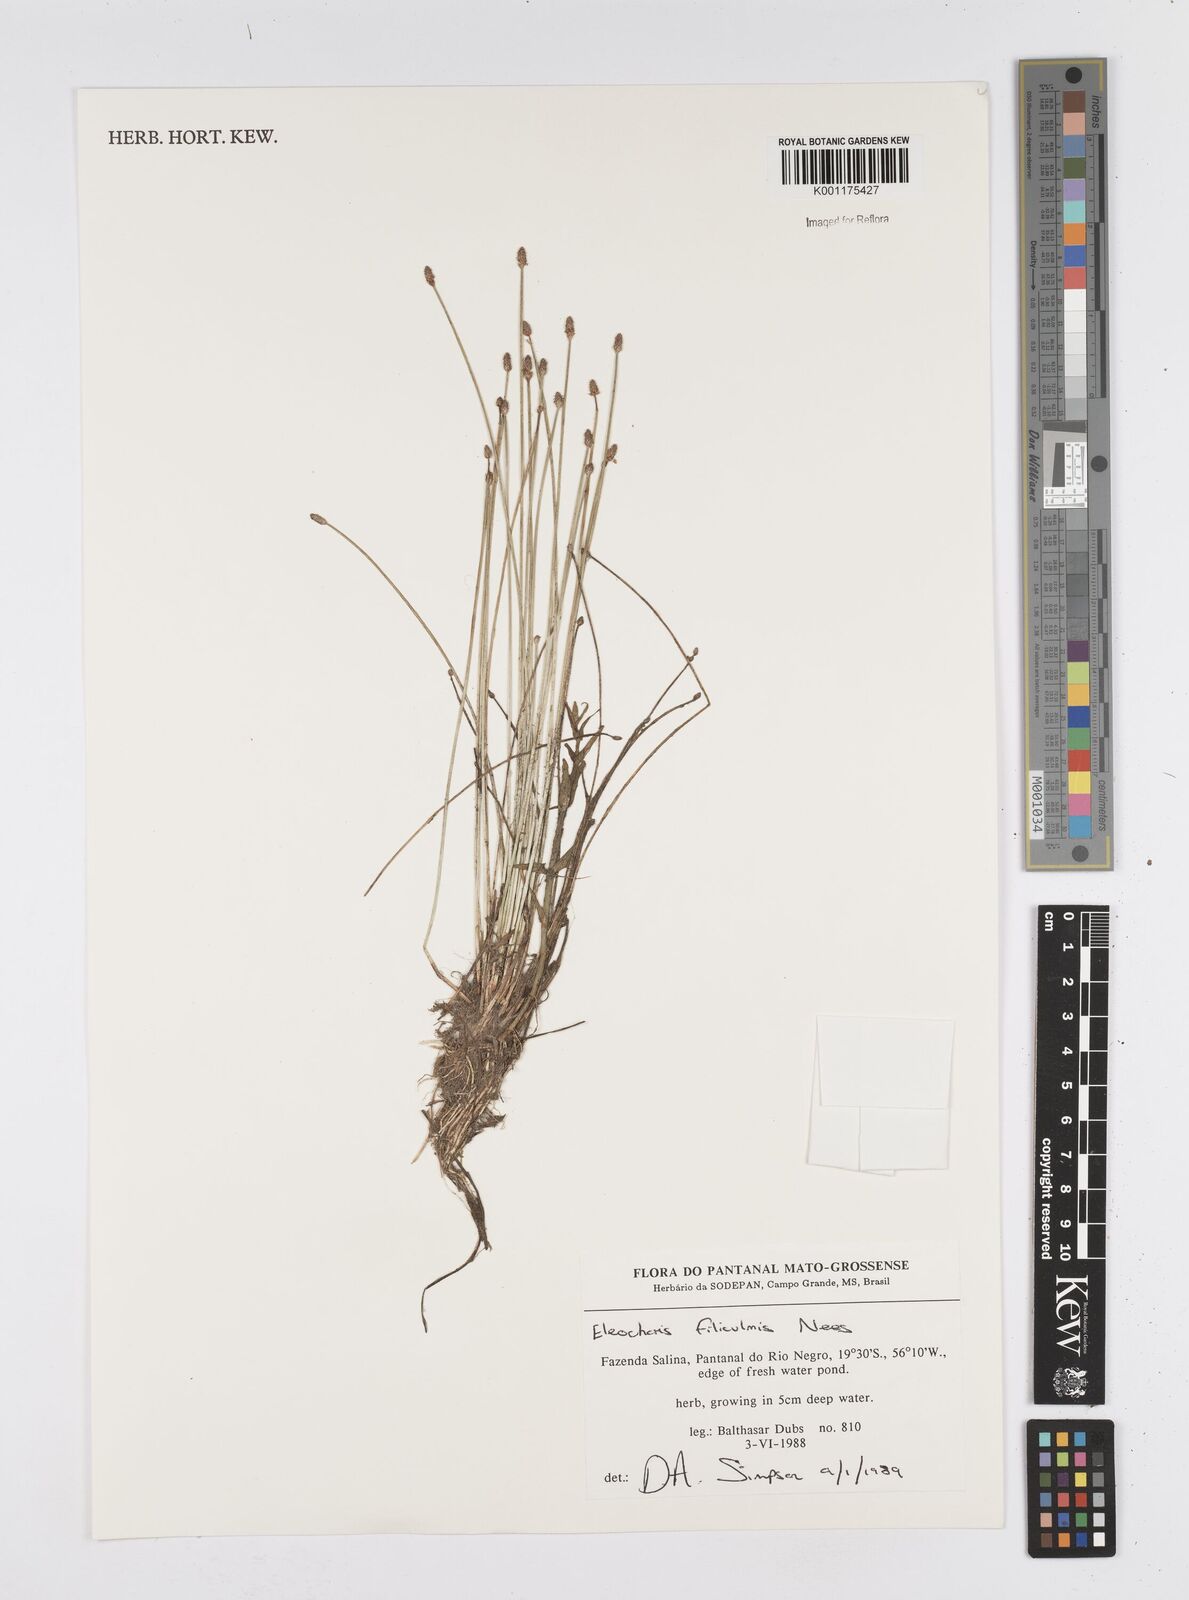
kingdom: Plantae
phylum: Tracheophyta
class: Liliopsida
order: Poales
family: Cyperaceae
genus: Eleocharis
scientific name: Eleocharis filiculmis
